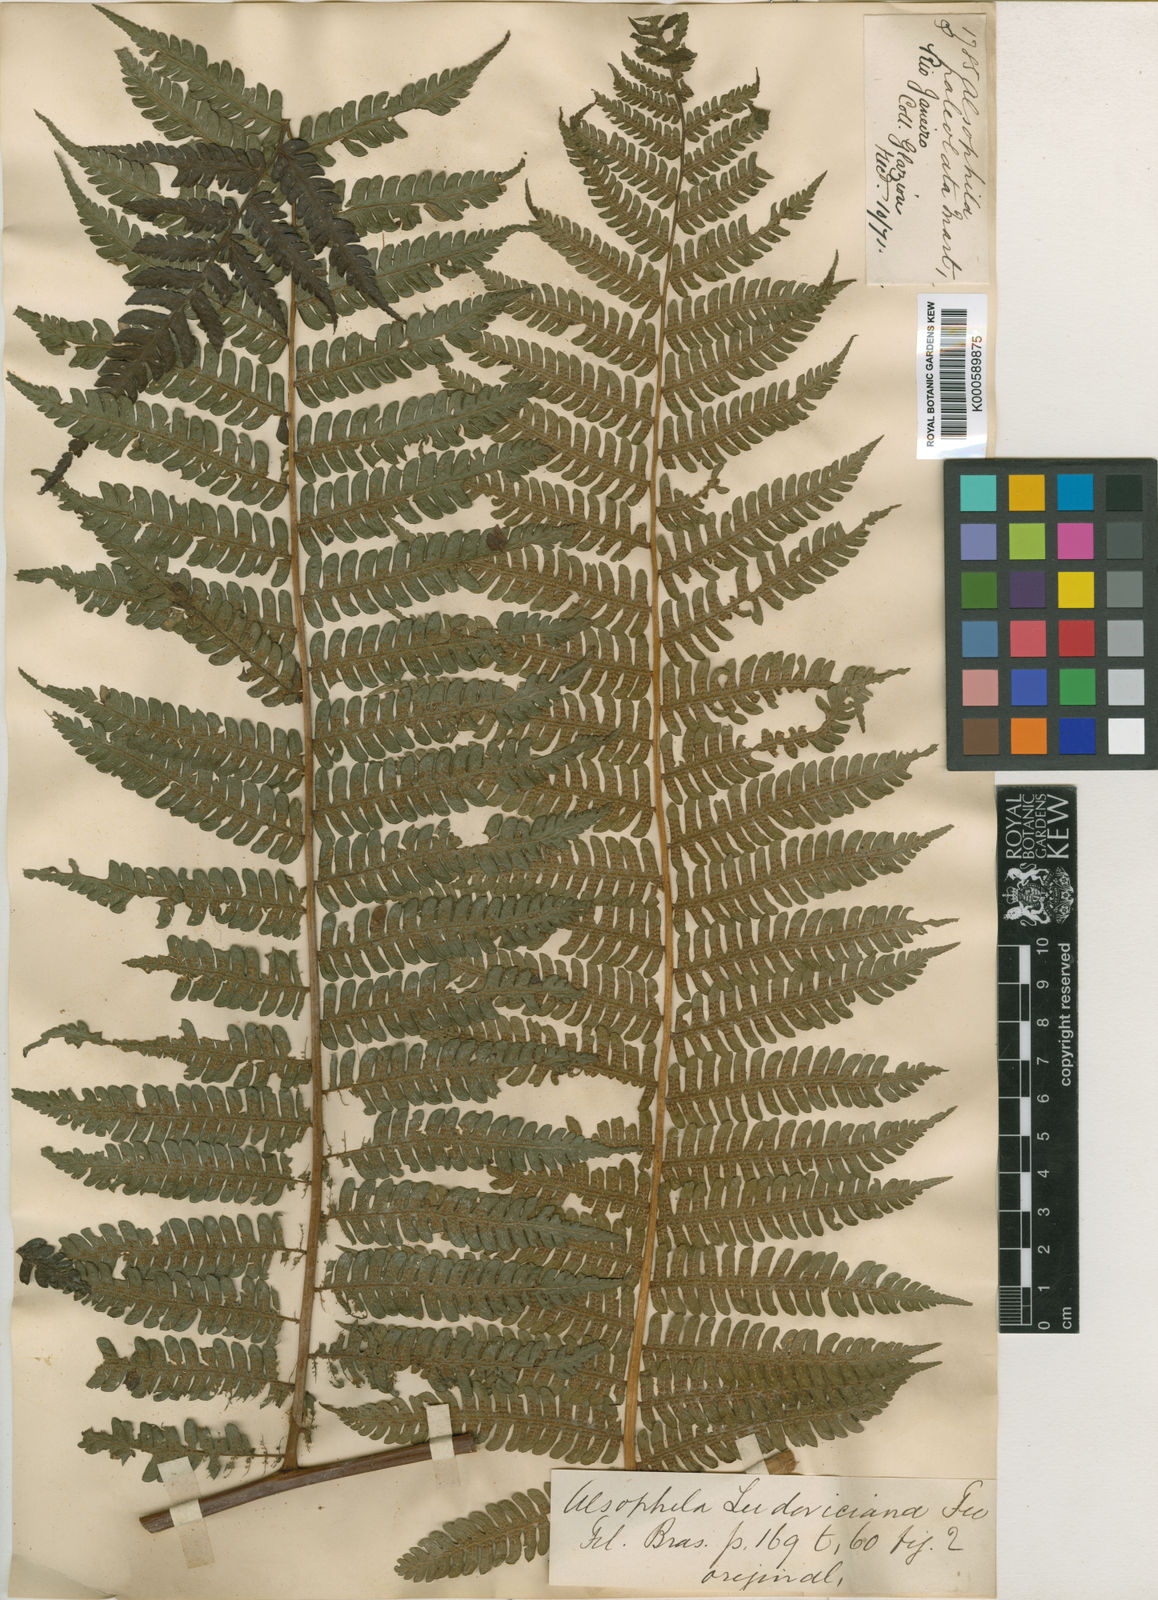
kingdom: Plantae
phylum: Tracheophyta
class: Polypodiopsida
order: Cyatheales
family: Cyatheaceae
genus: Cyathea
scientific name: Cyathea phalerata
